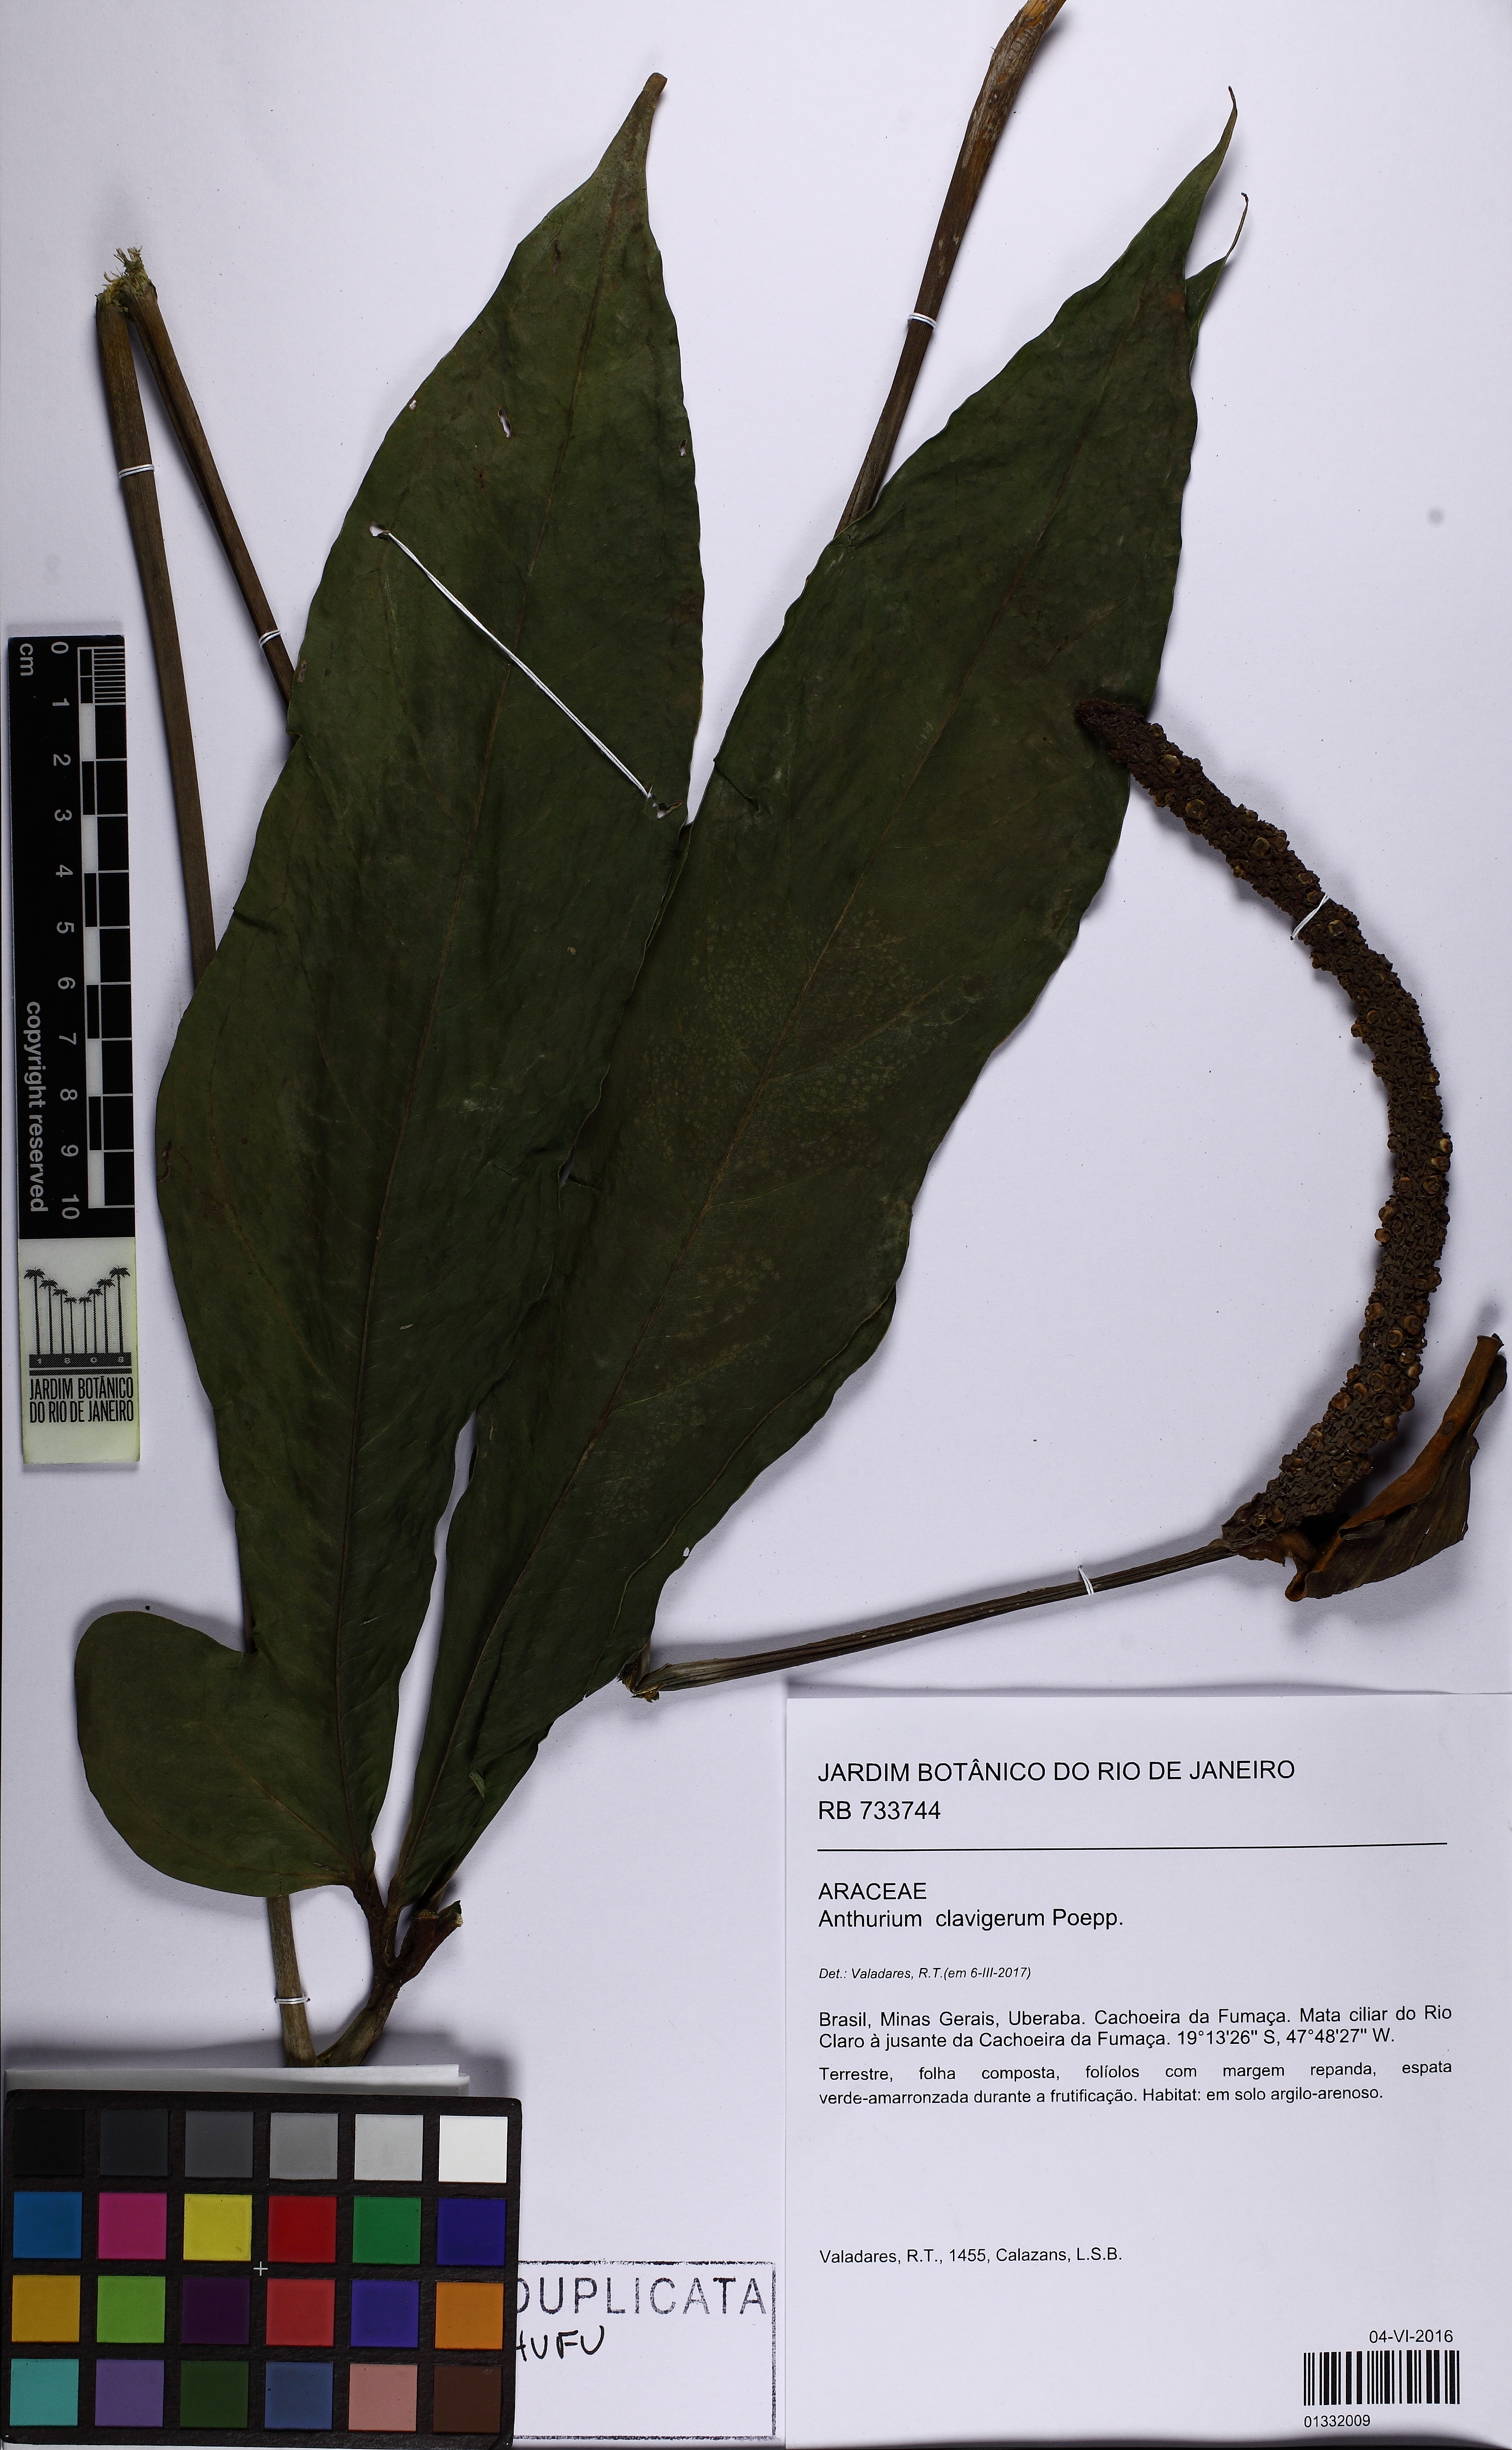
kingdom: Plantae
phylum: Tracheophyta
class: Liliopsida
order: Alismatales
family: Araceae
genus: Anthurium
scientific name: Anthurium clavigerum
